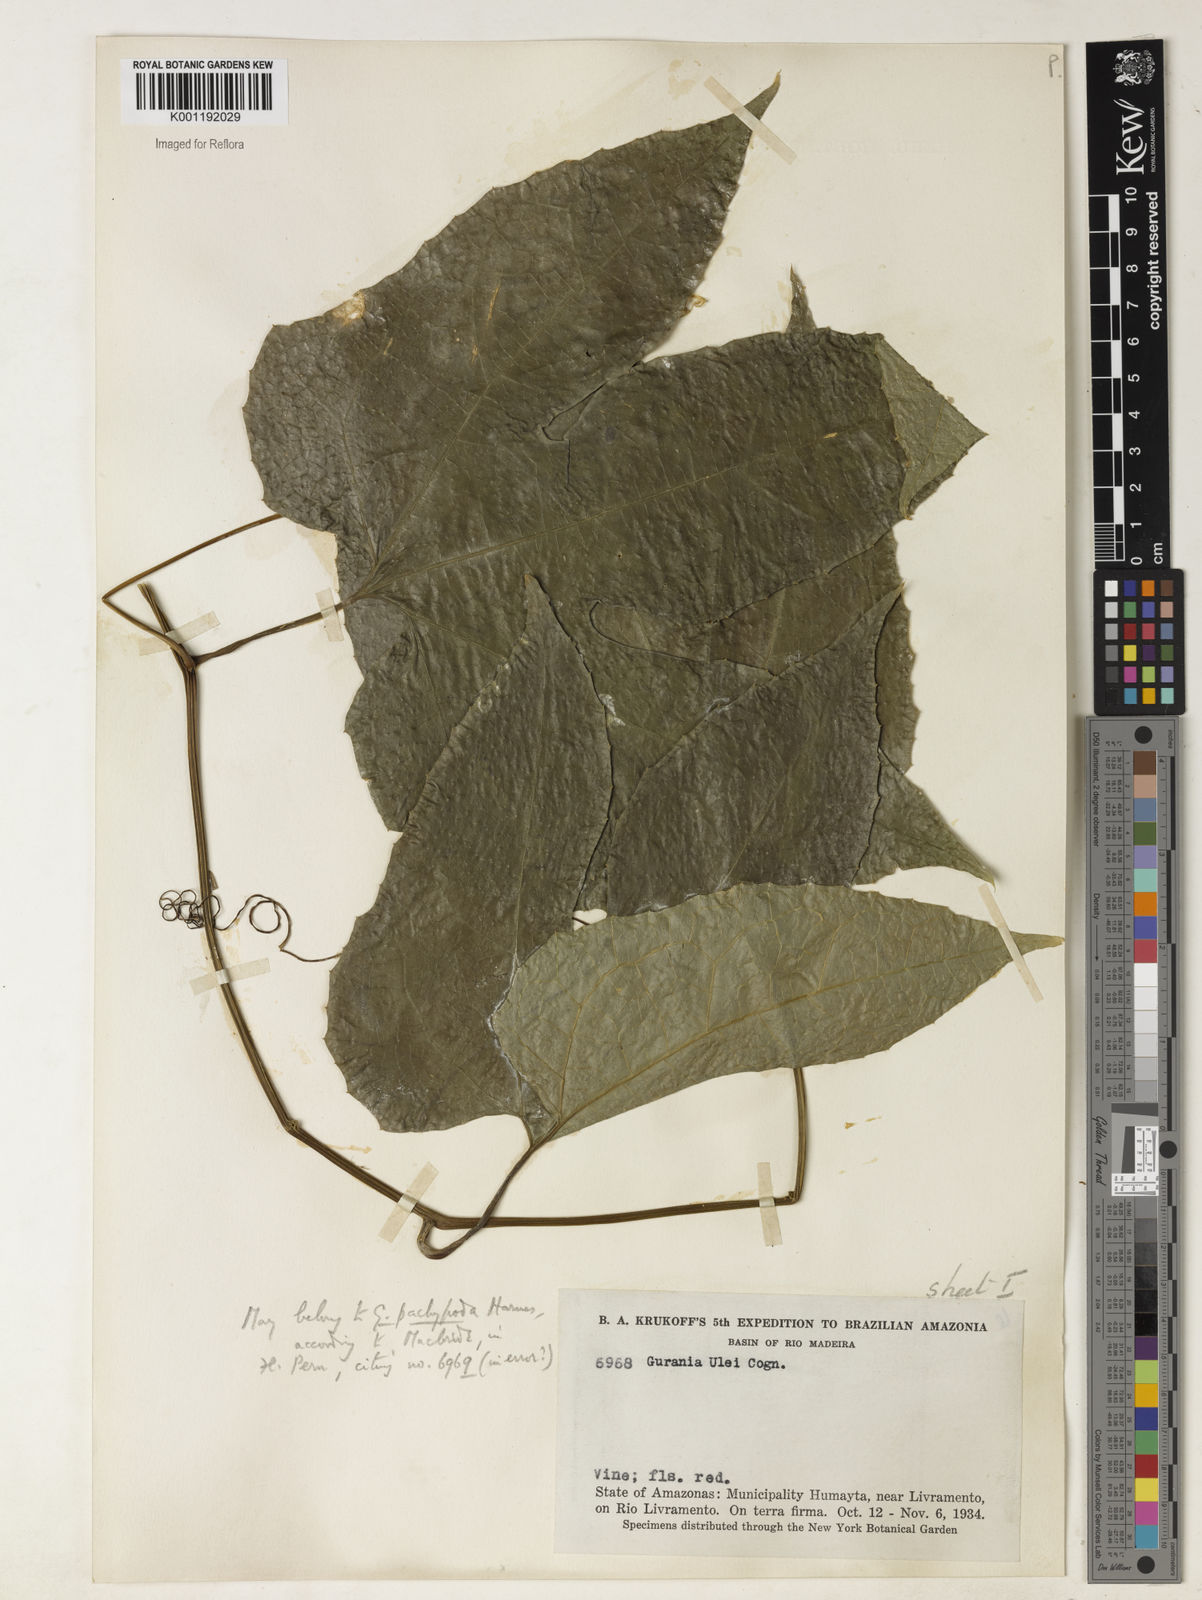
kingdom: Plantae
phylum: Tracheophyta
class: Magnoliopsida
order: Cucurbitales
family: Cucurbitaceae
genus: Gurania
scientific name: Gurania acuminata
